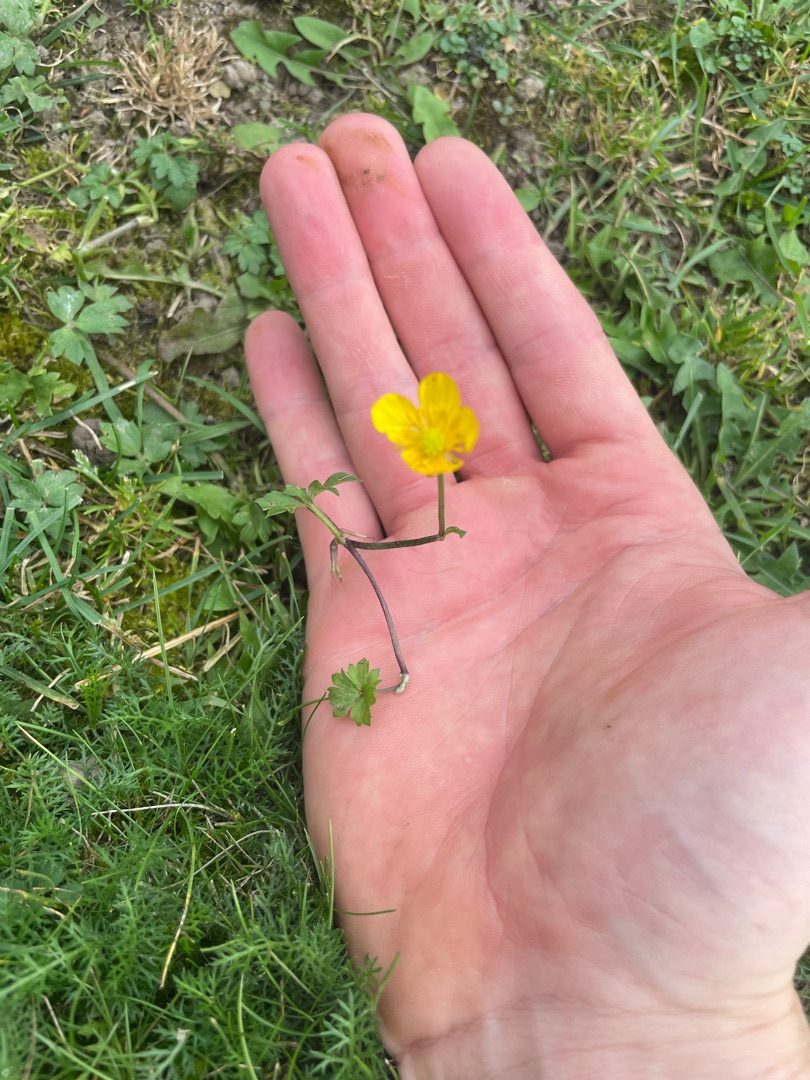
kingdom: Plantae
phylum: Tracheophyta
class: Magnoliopsida
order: Ranunculales
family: Ranunculaceae
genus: Ranunculus
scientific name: Ranunculus repens
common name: Lav ranunkel
